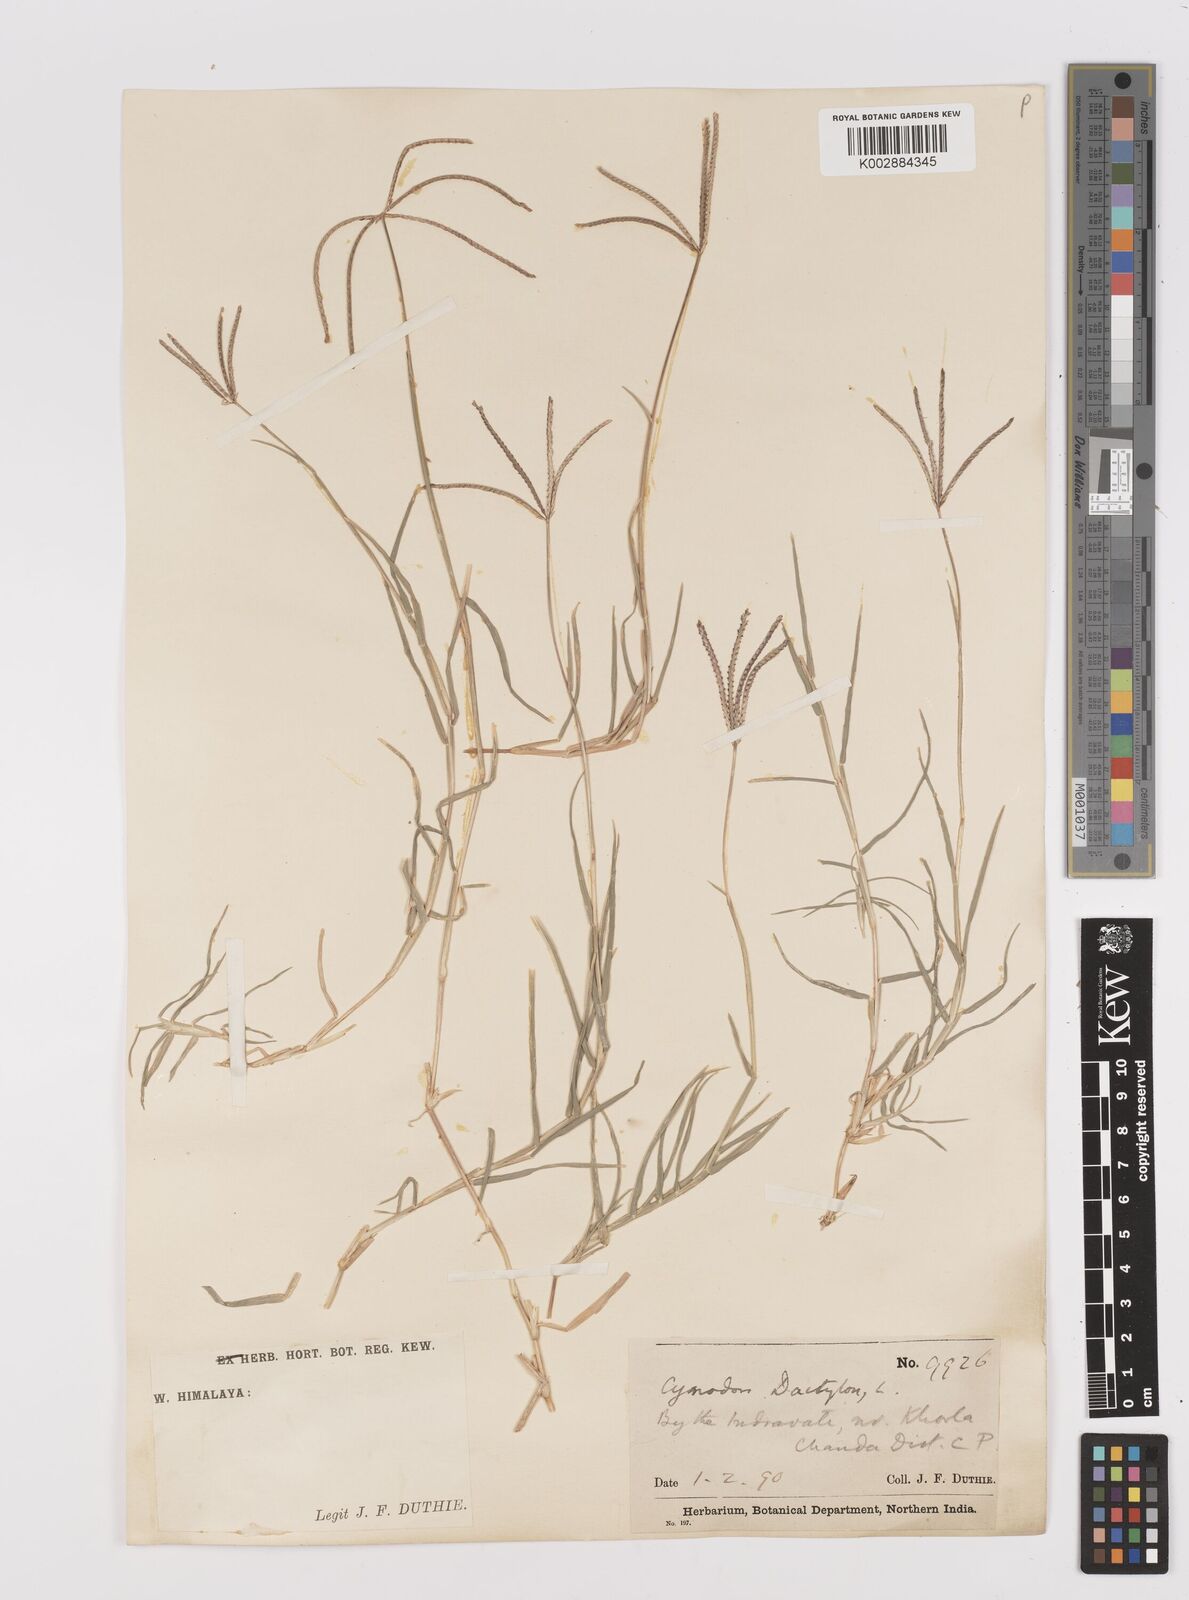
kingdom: Plantae
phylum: Tracheophyta
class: Liliopsida
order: Poales
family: Poaceae
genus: Cynodon
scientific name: Cynodon dactylon
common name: Bermuda grass
